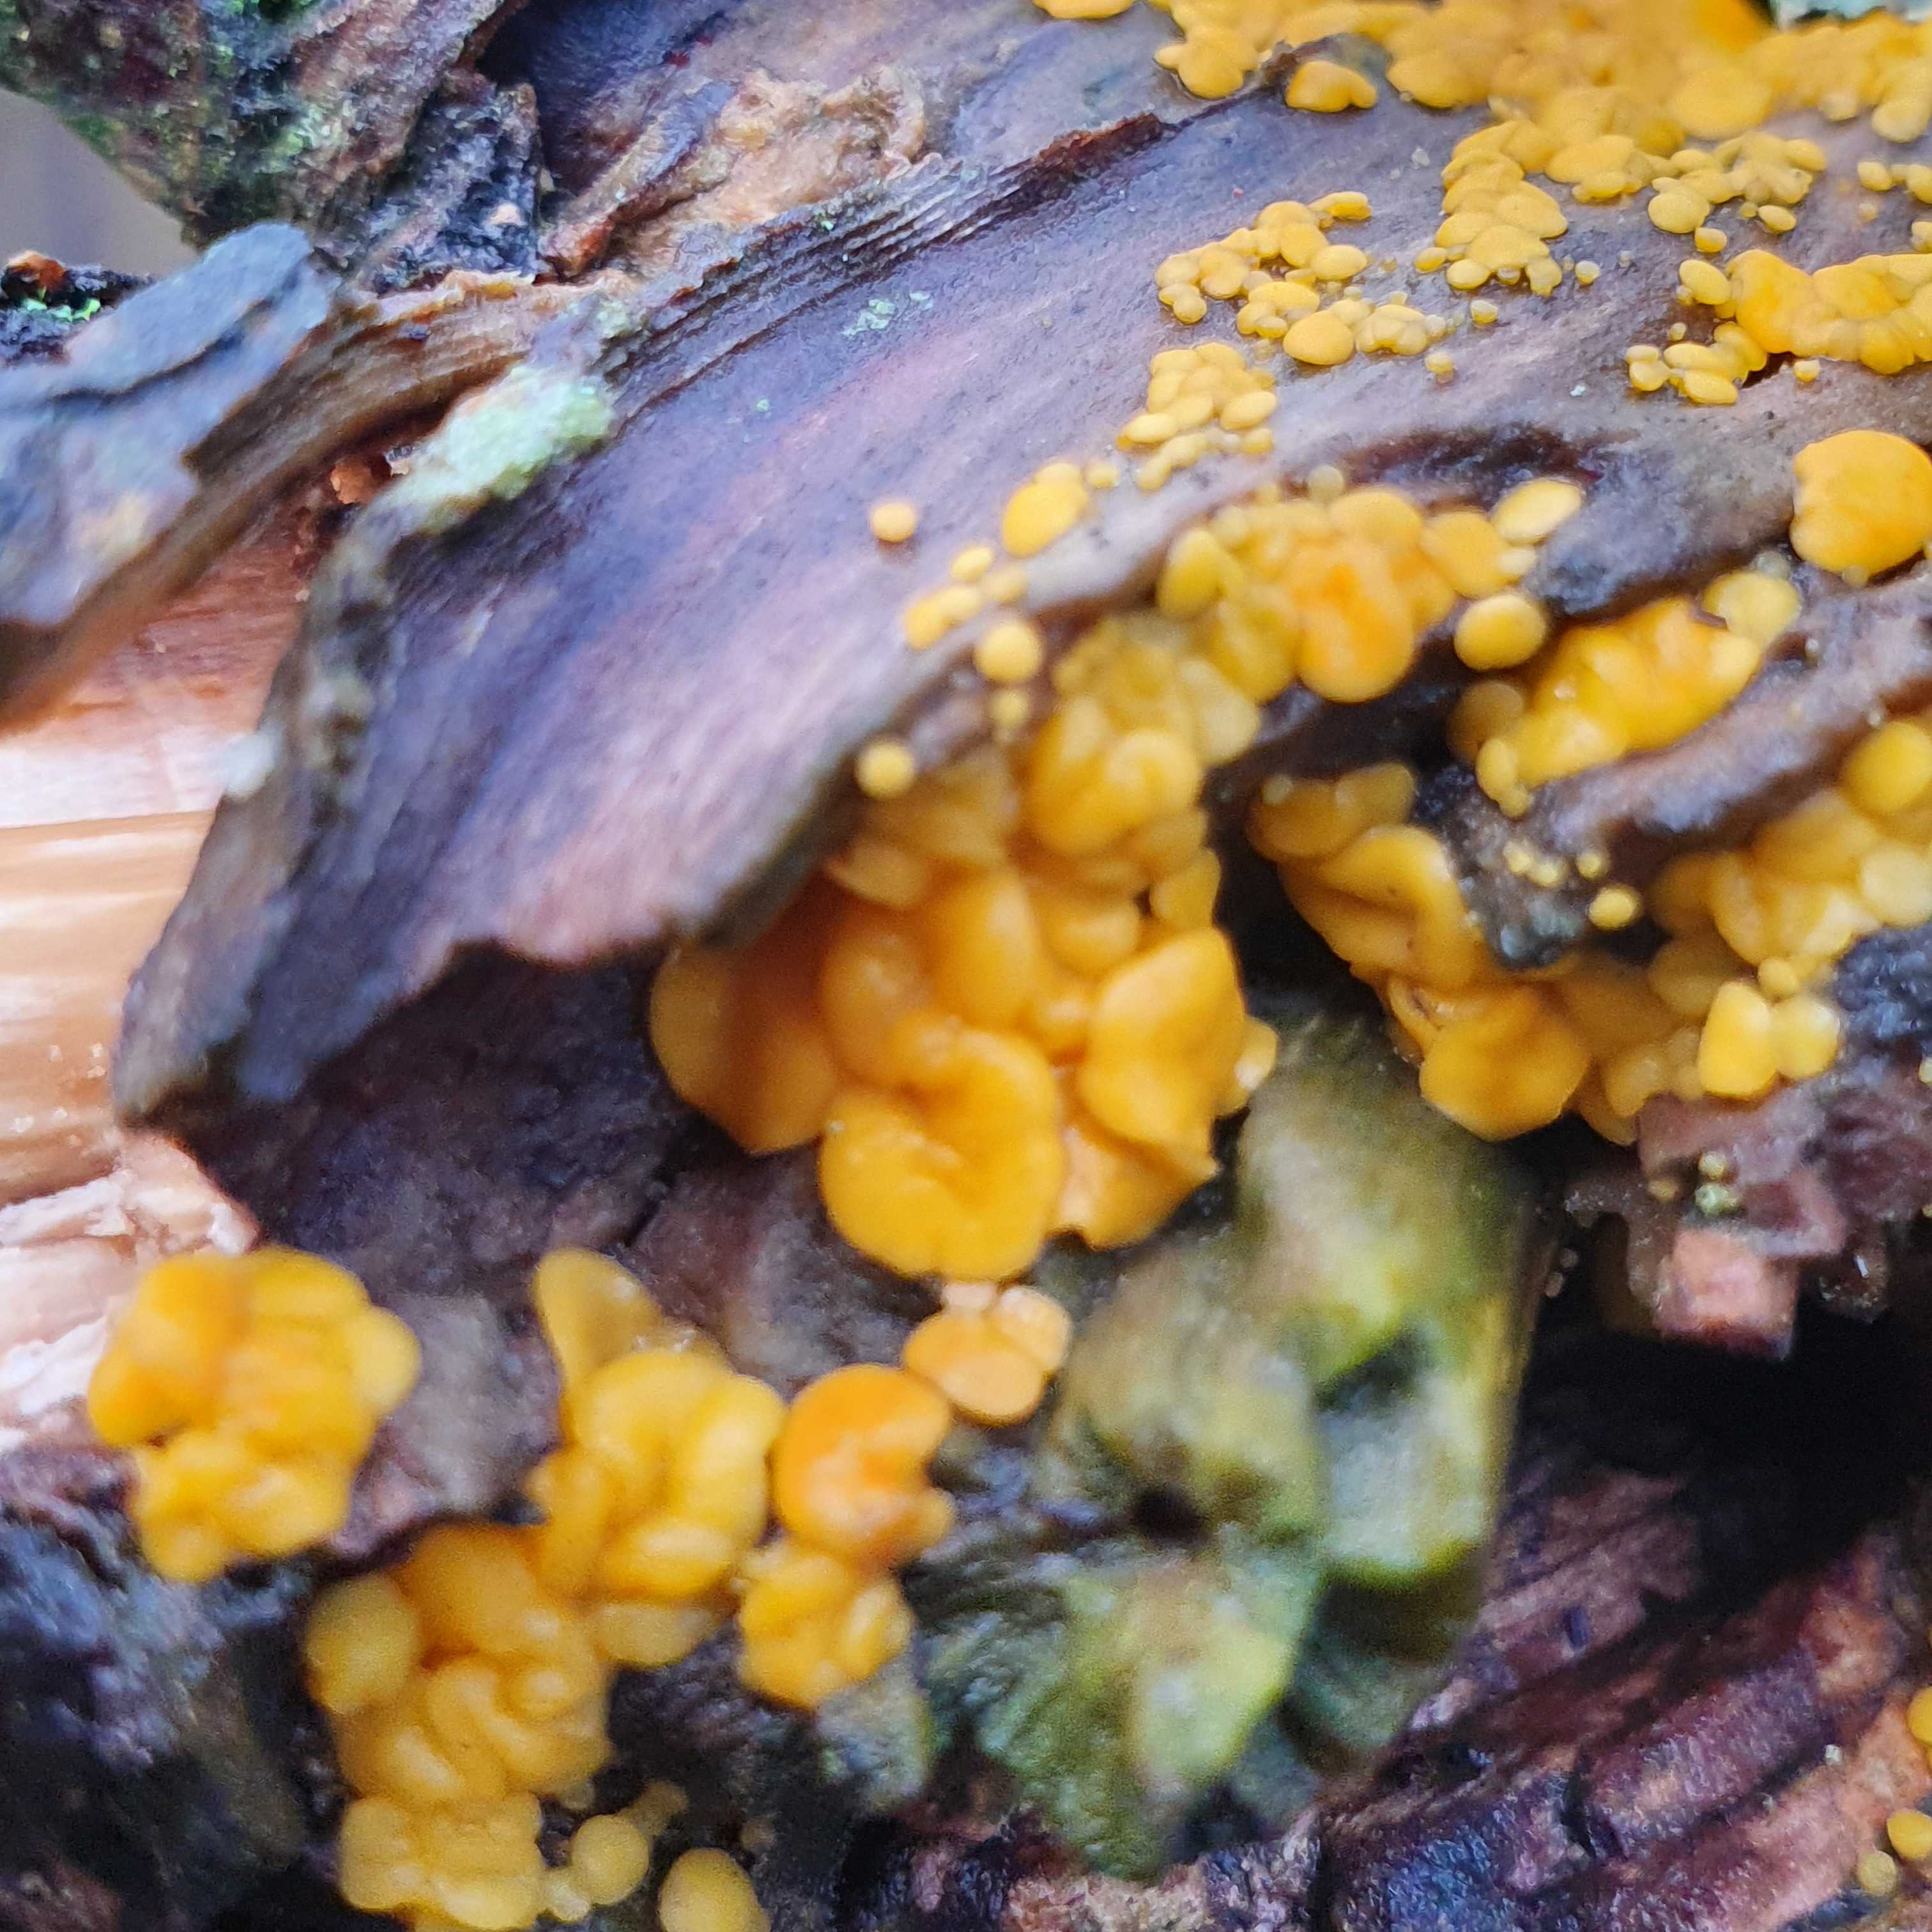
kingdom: Fungi
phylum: Ascomycota
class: Leotiomycetes
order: Helotiales
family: Pezizellaceae
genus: Calycina
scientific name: Calycina citrina
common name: almindelig gulskive
